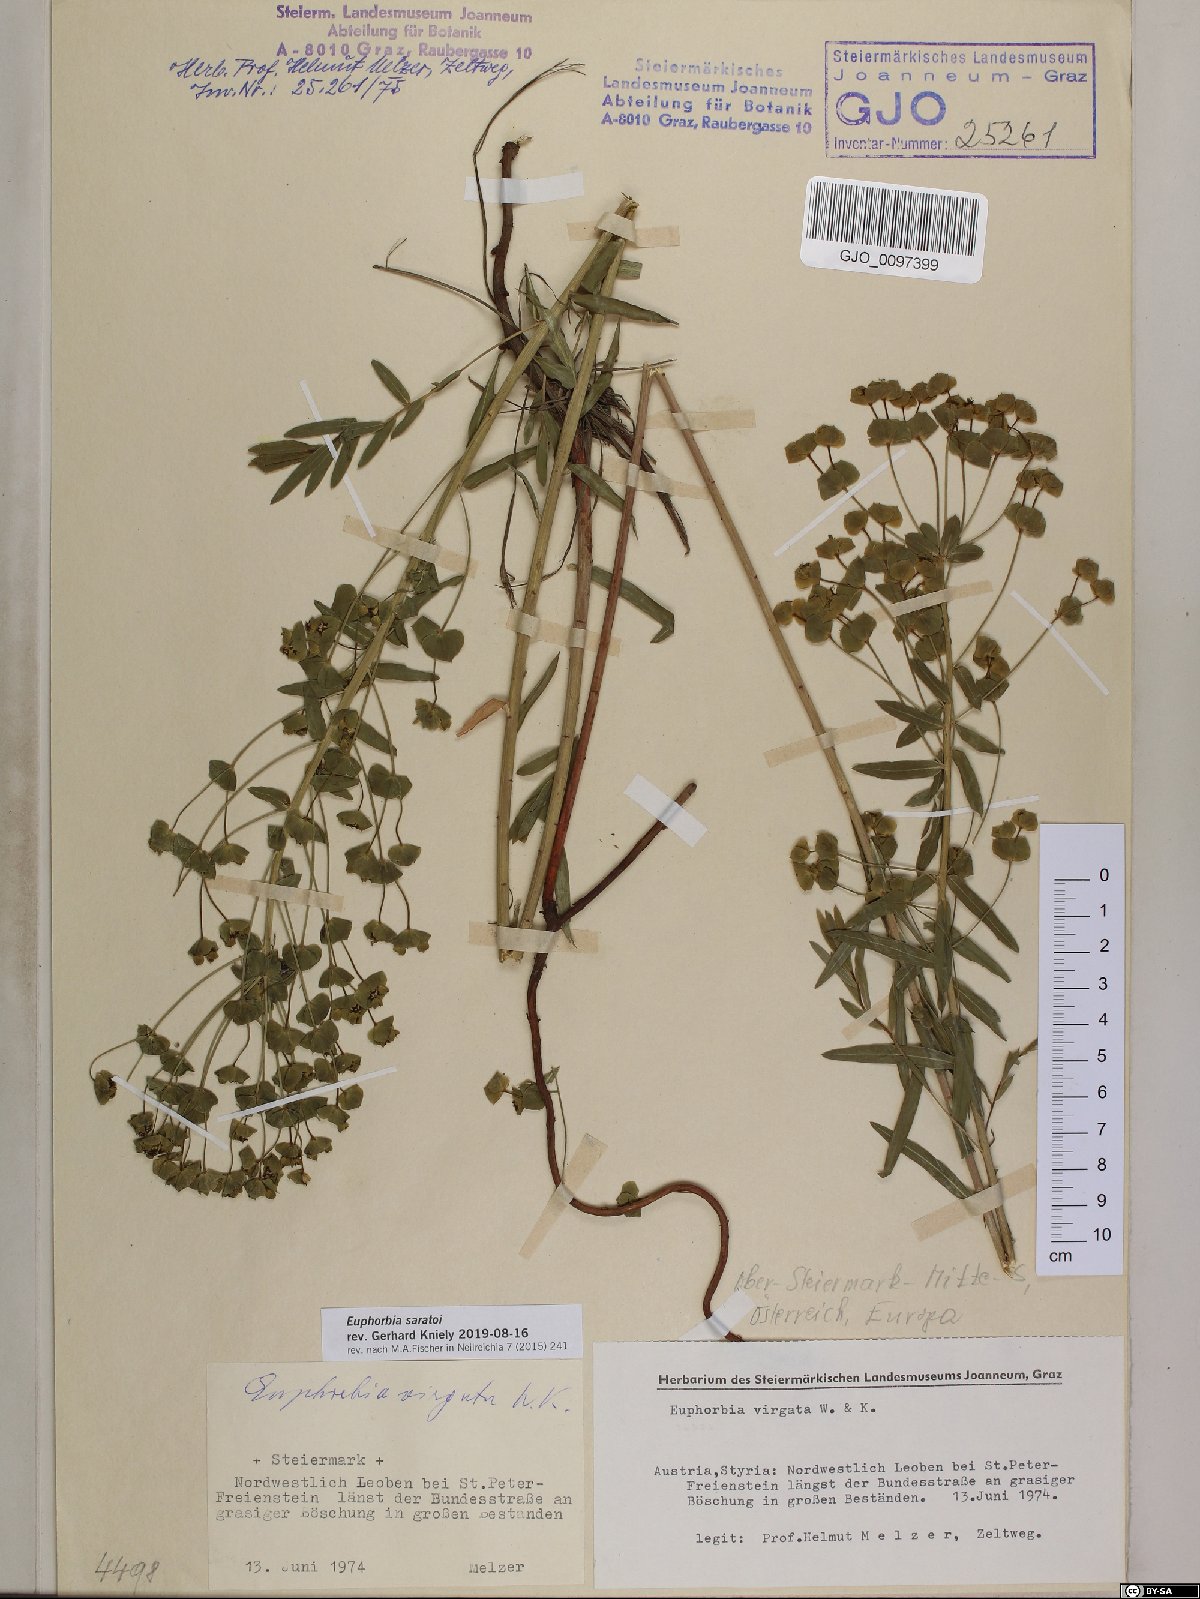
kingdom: Plantae
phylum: Tracheophyta
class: Magnoliopsida
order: Malpighiales
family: Euphorbiaceae
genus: Euphorbia
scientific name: Euphorbia saratoi
